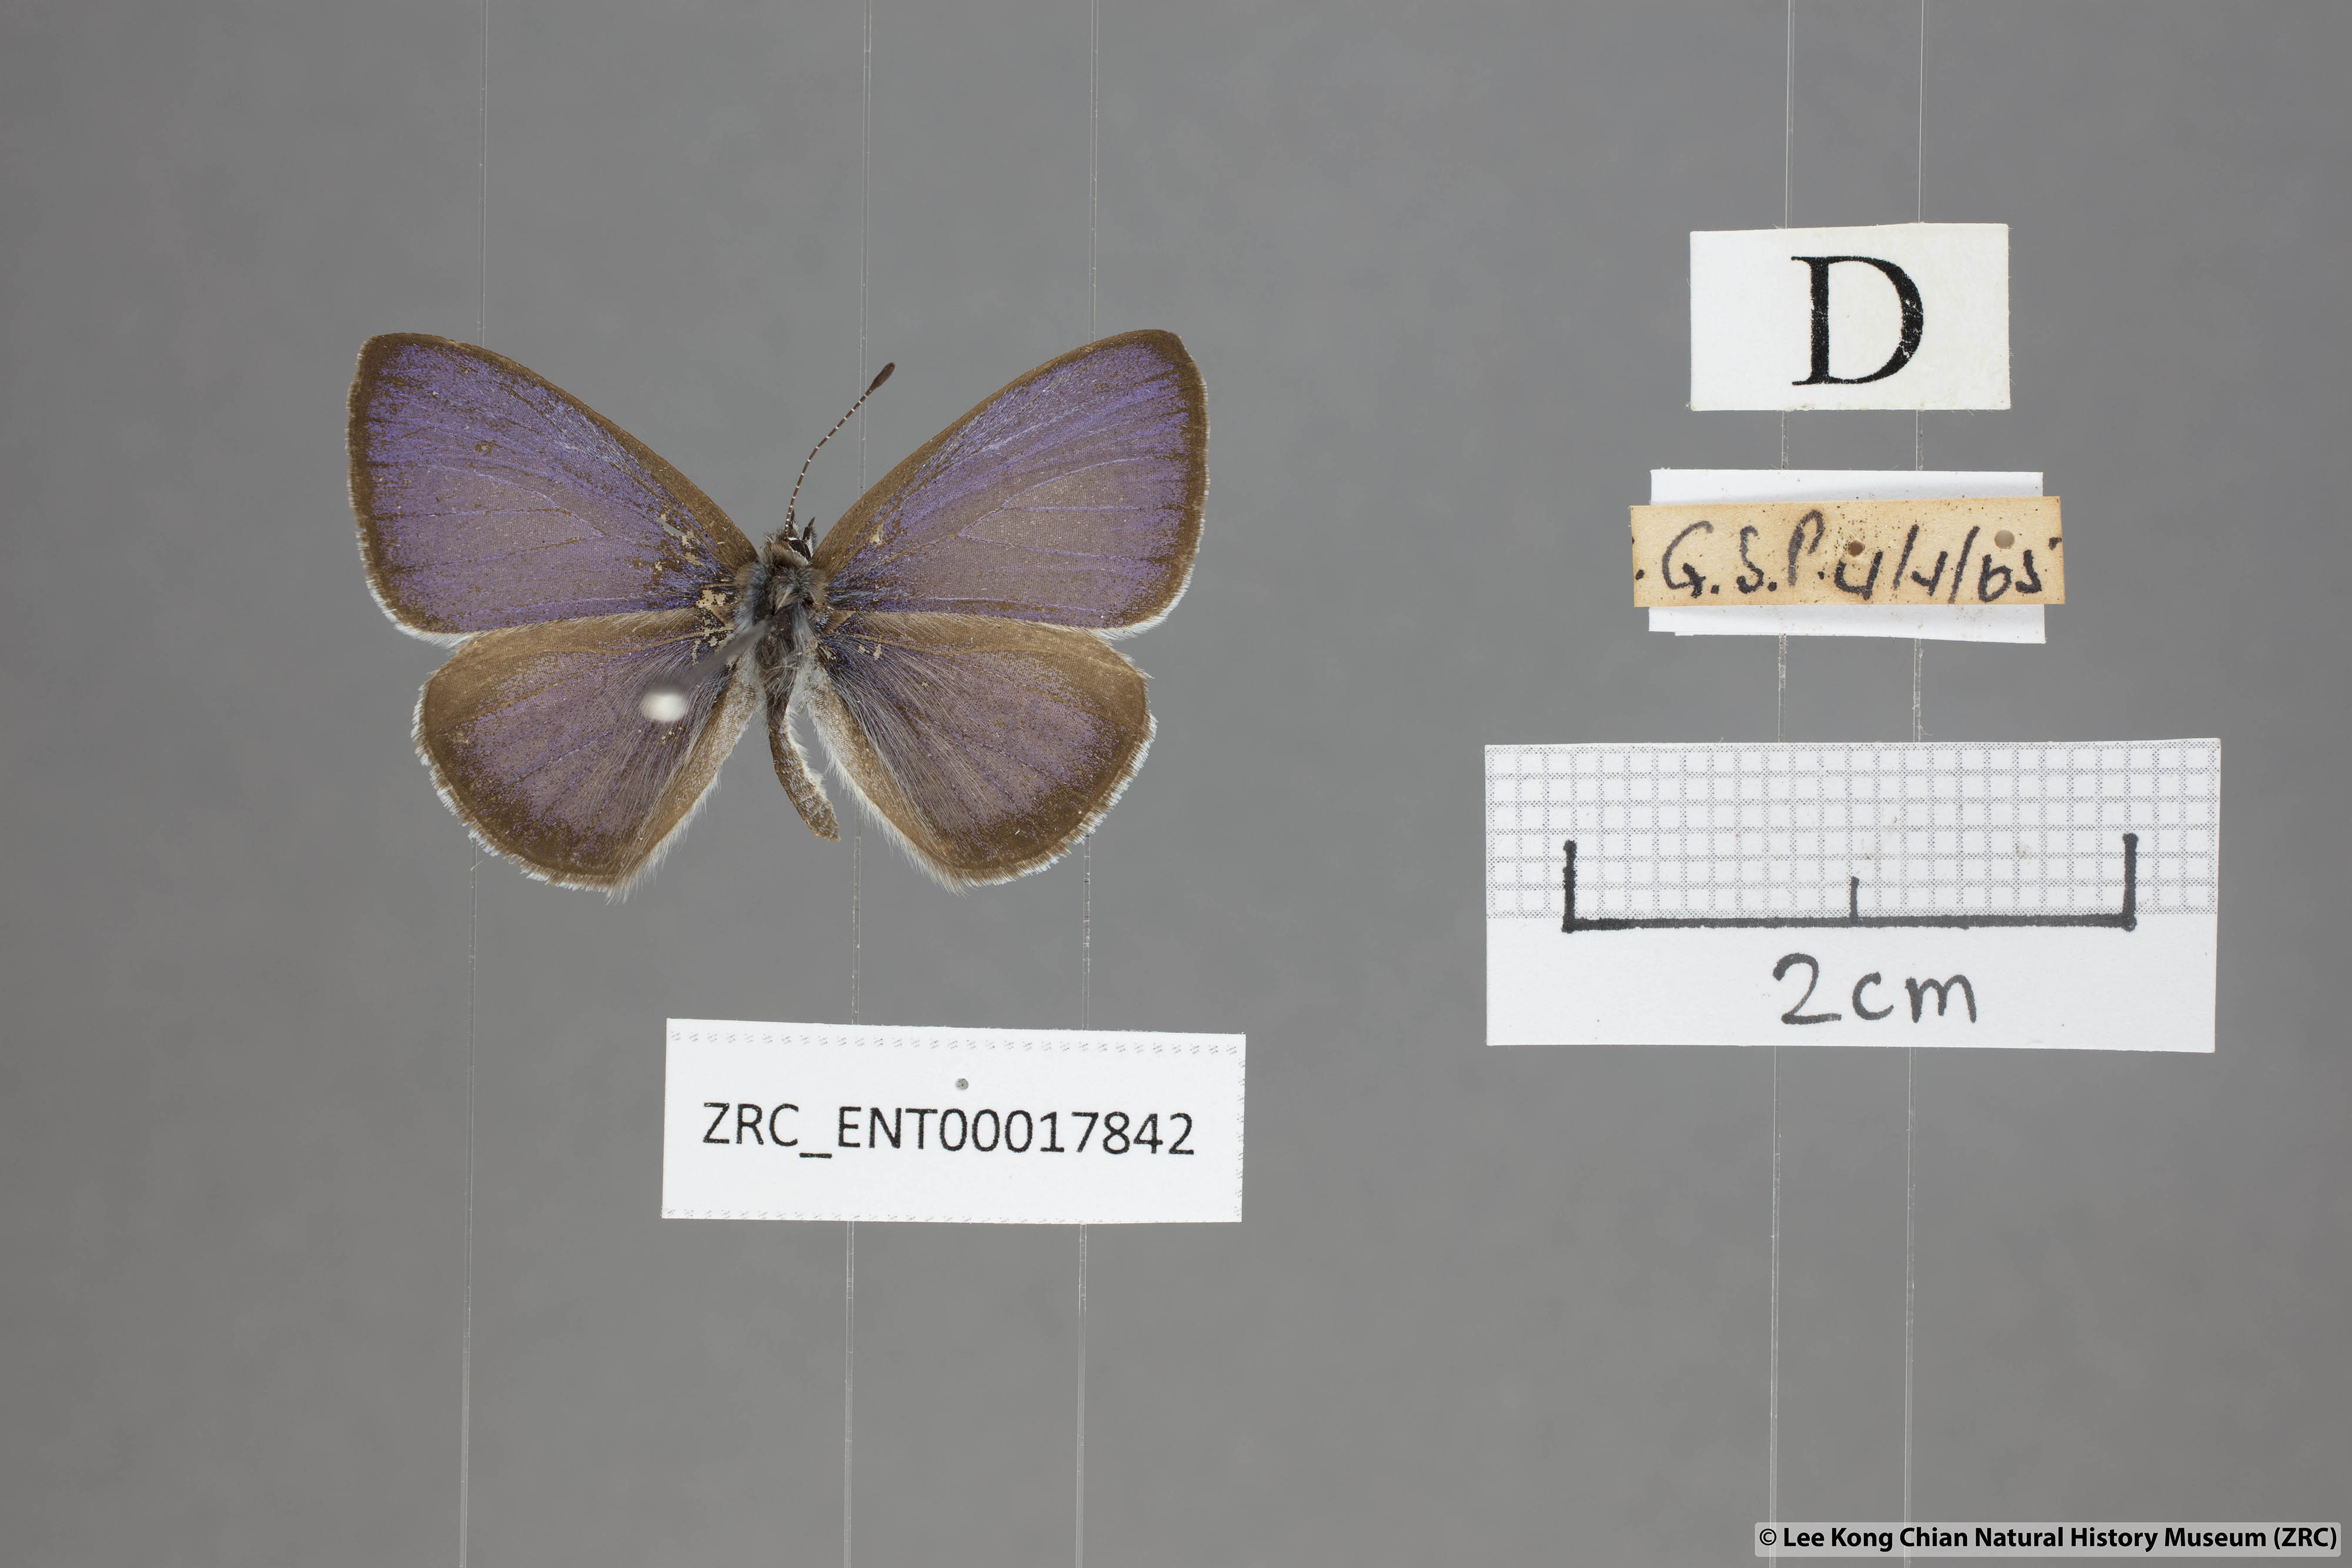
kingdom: Animalia
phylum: Arthropoda
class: Insecta
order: Lepidoptera
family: Lycaenidae
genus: Udara
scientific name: Udara
